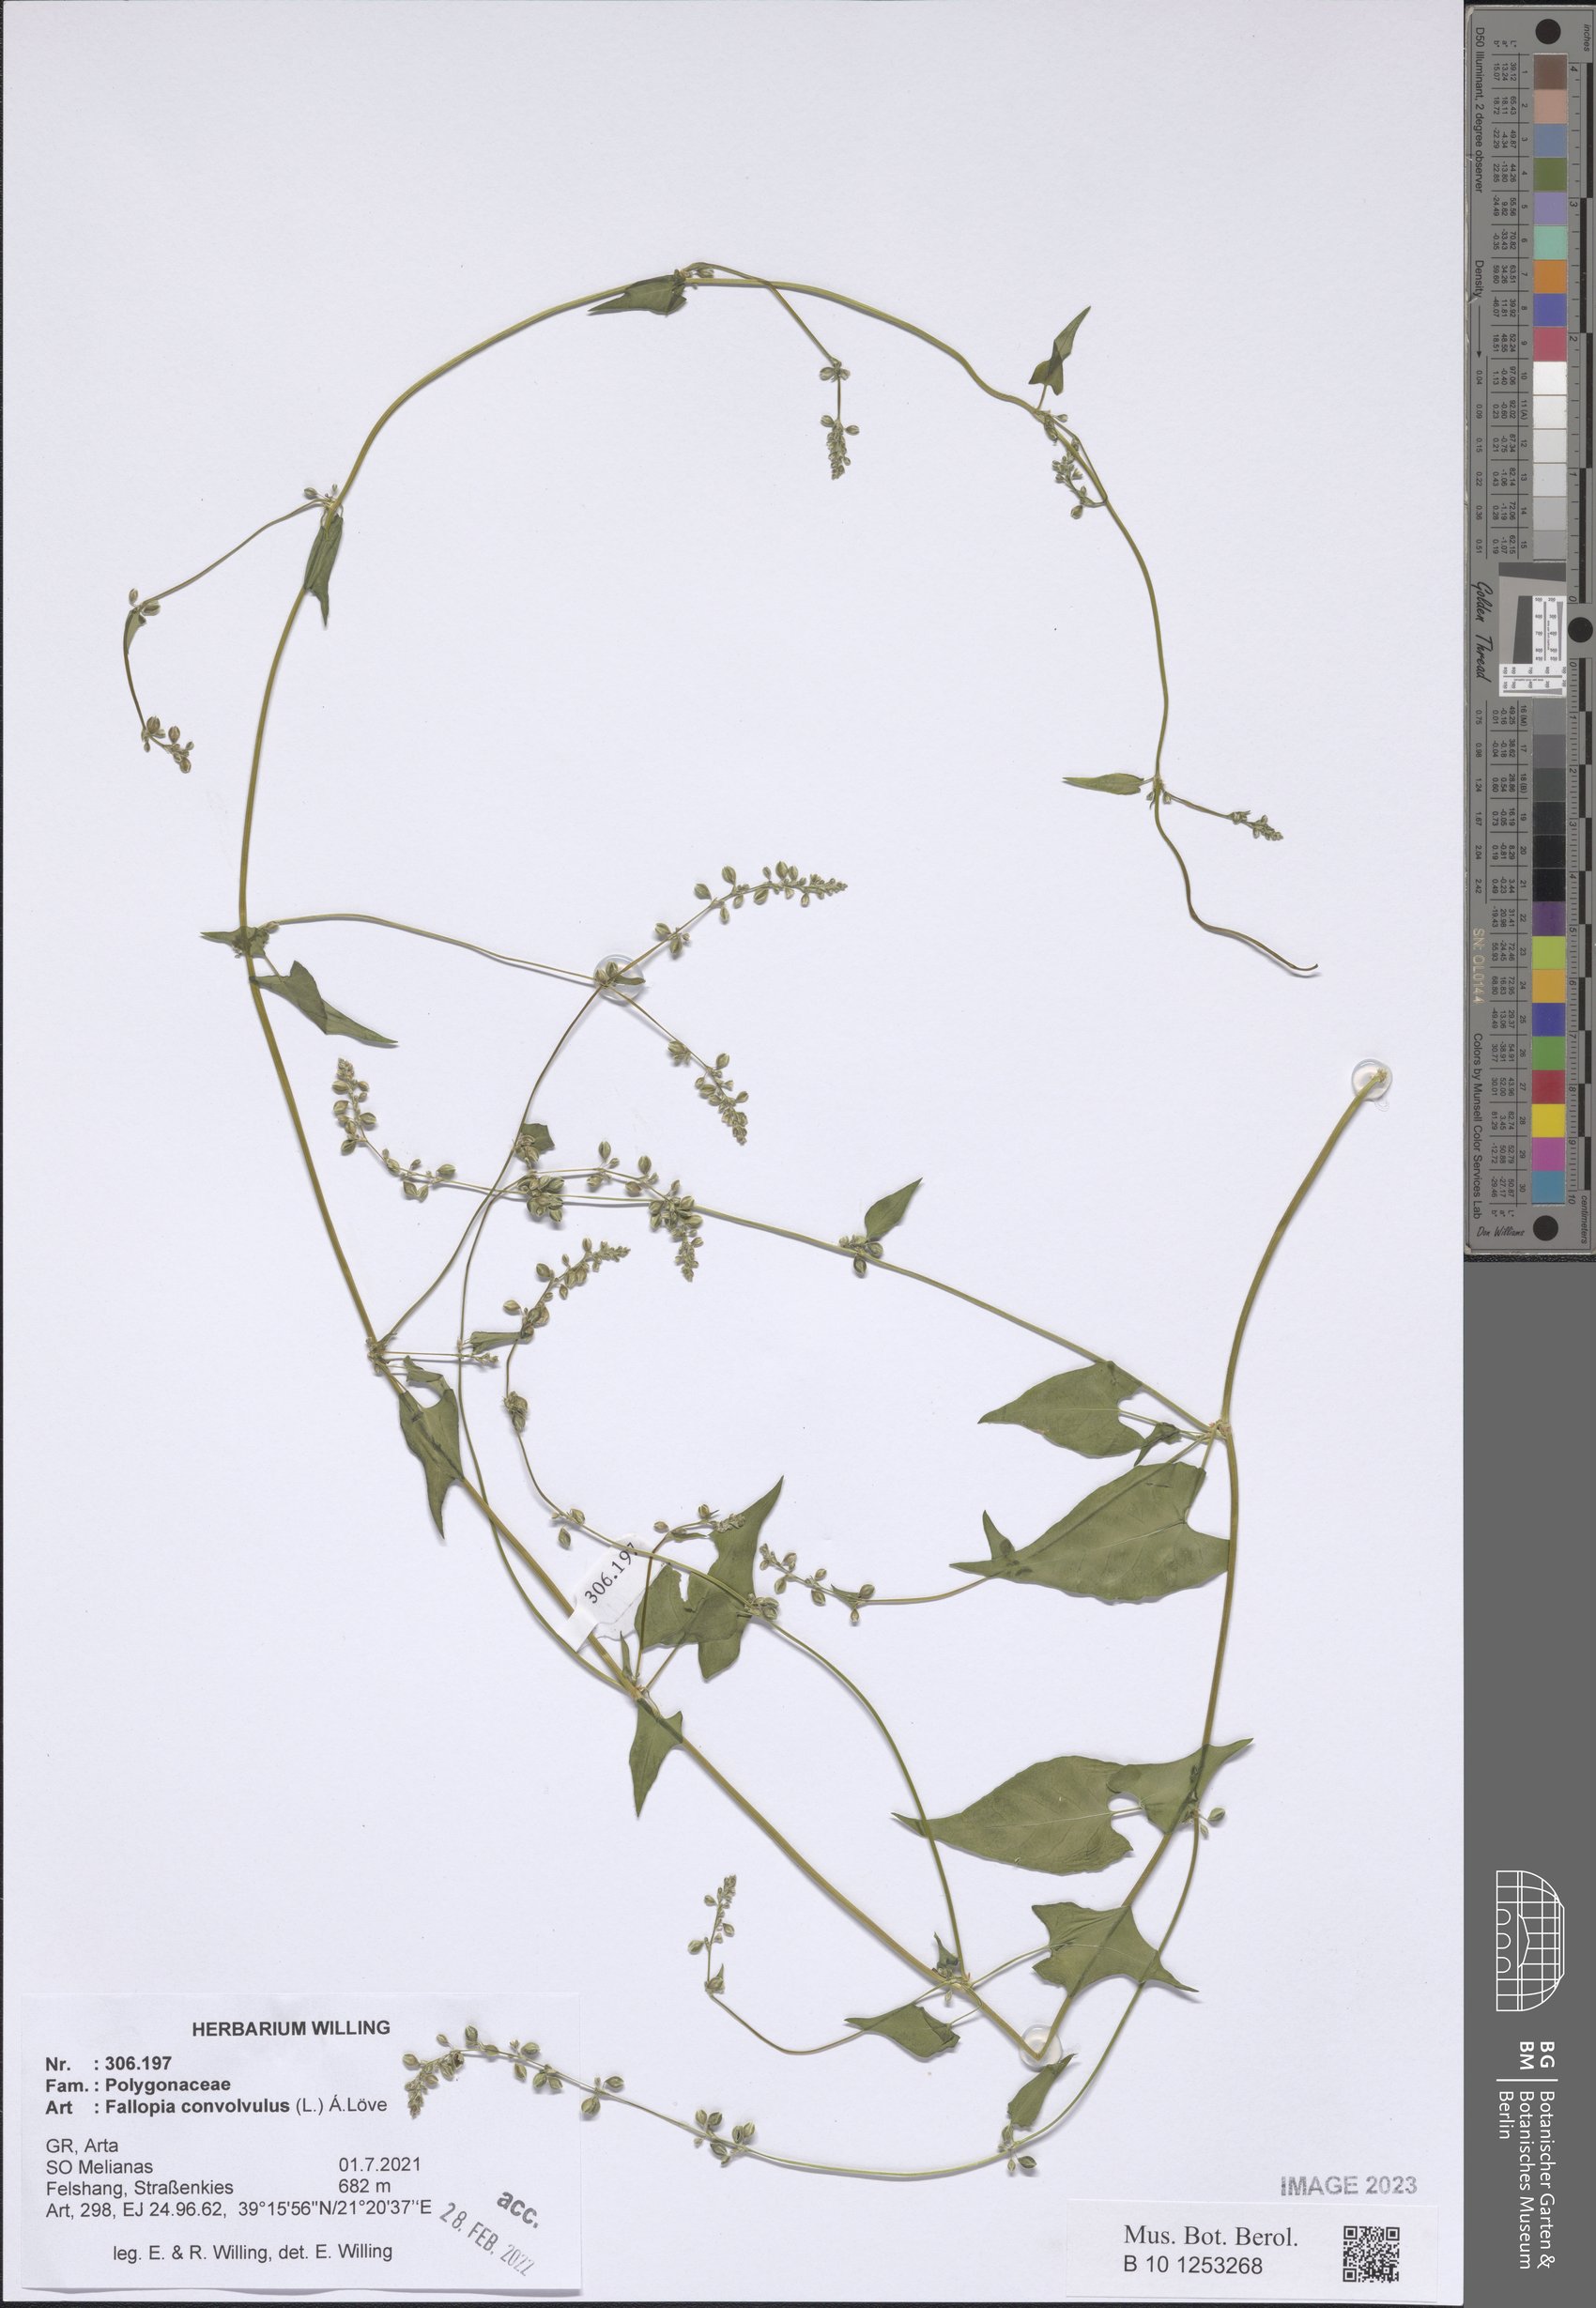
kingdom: Plantae
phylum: Tracheophyta
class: Magnoliopsida
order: Caryophyllales
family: Polygonaceae
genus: Fallopia
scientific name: Fallopia convolvulus
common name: Black bindweed
